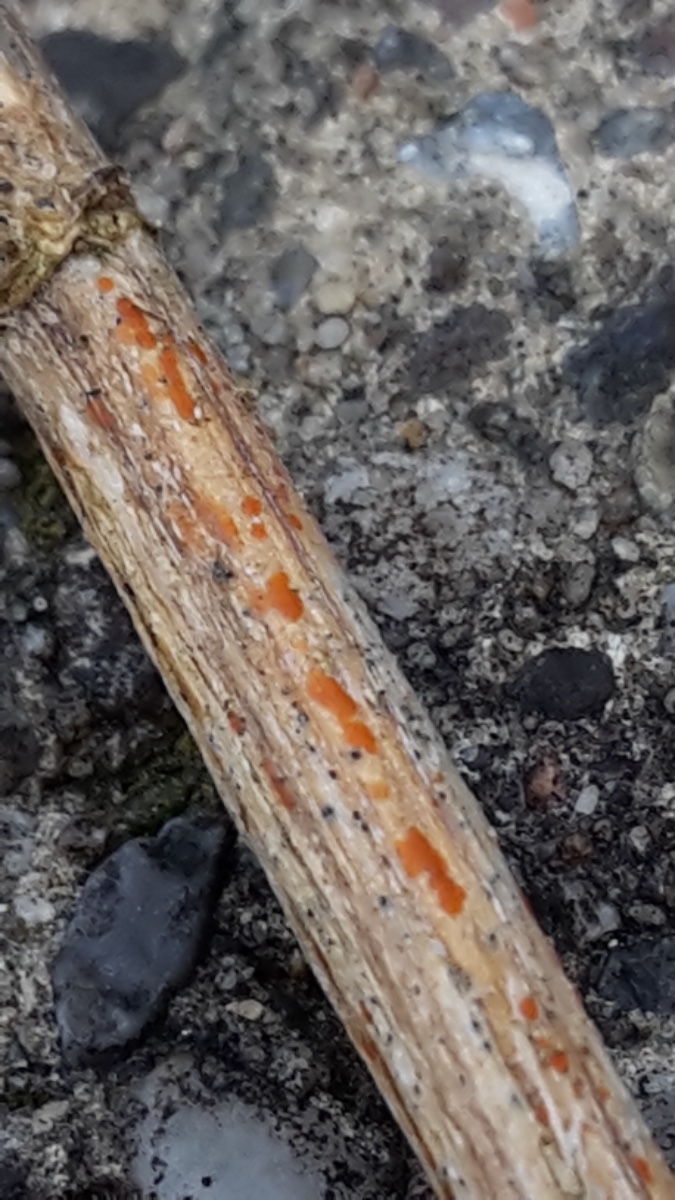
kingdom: Fungi
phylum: Ascomycota
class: Leotiomycetes
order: Helotiales
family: Calloriaceae
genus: Calloria
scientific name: Calloria urticae
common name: nælde-orangeskive
